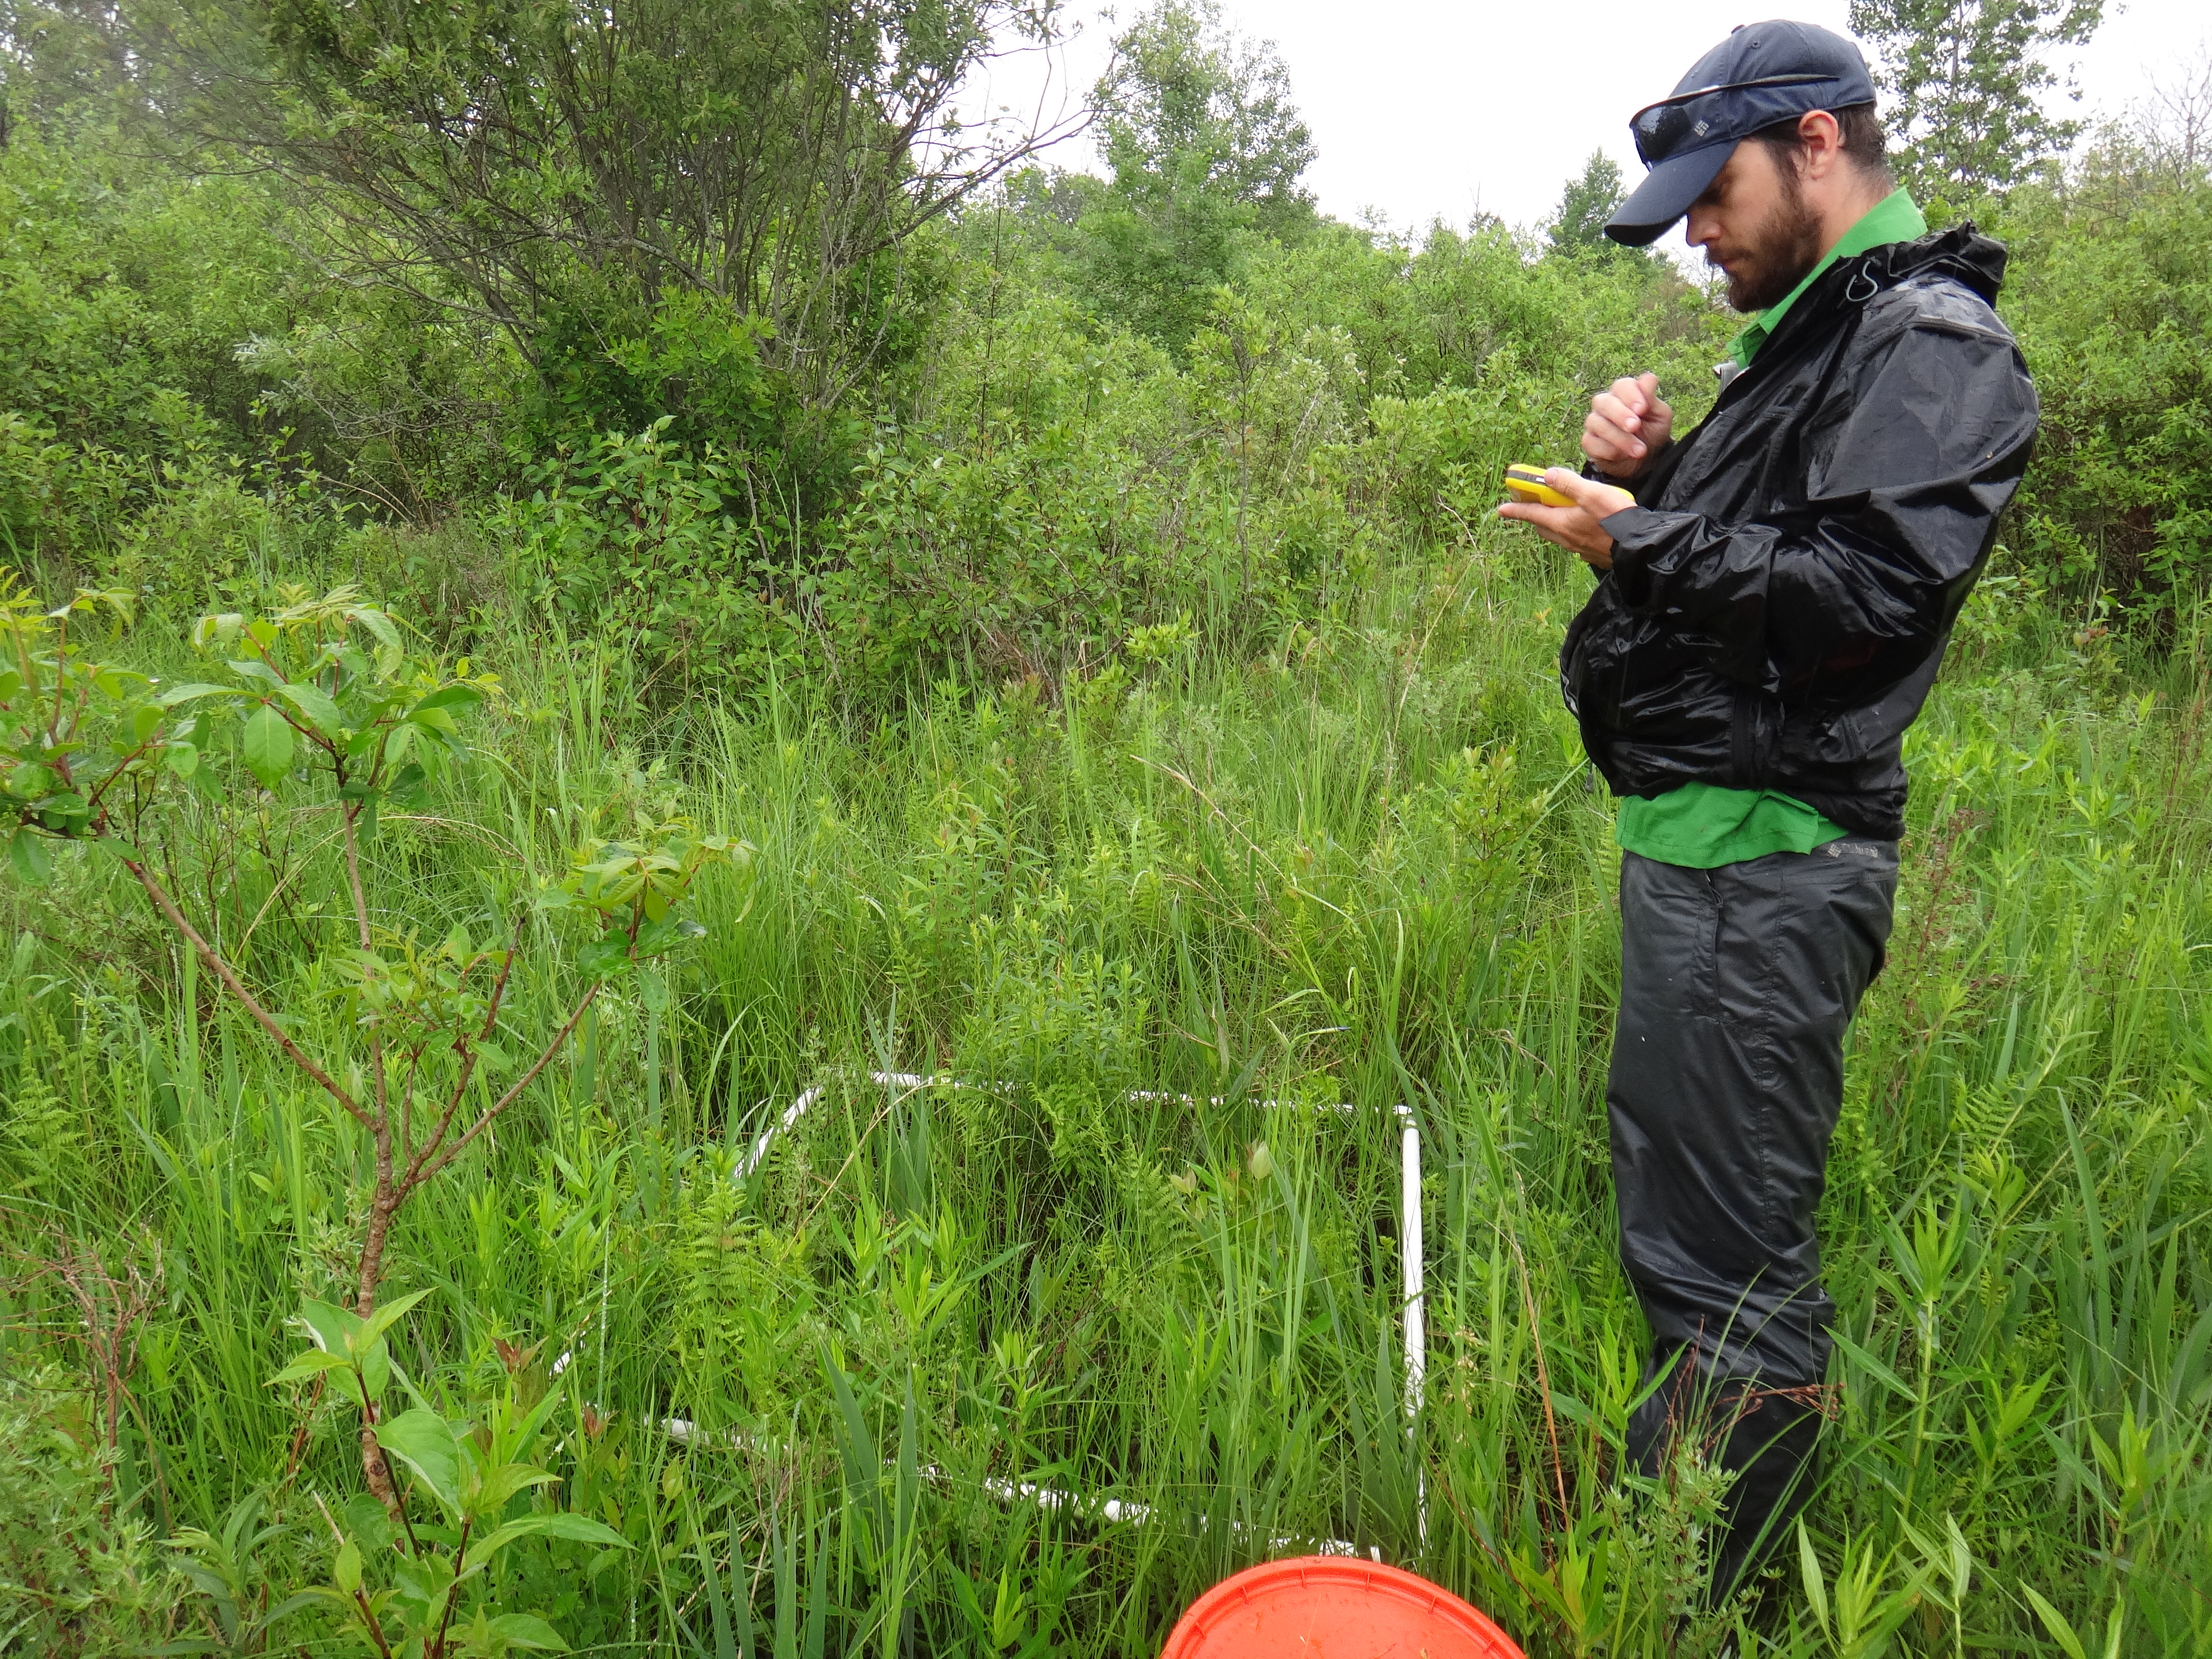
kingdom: Plantae
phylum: Tracheophyta
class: Liliopsida
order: Poales
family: Poaceae
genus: Phalaris
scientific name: Phalaris arundinacea
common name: Reed canary-grass
